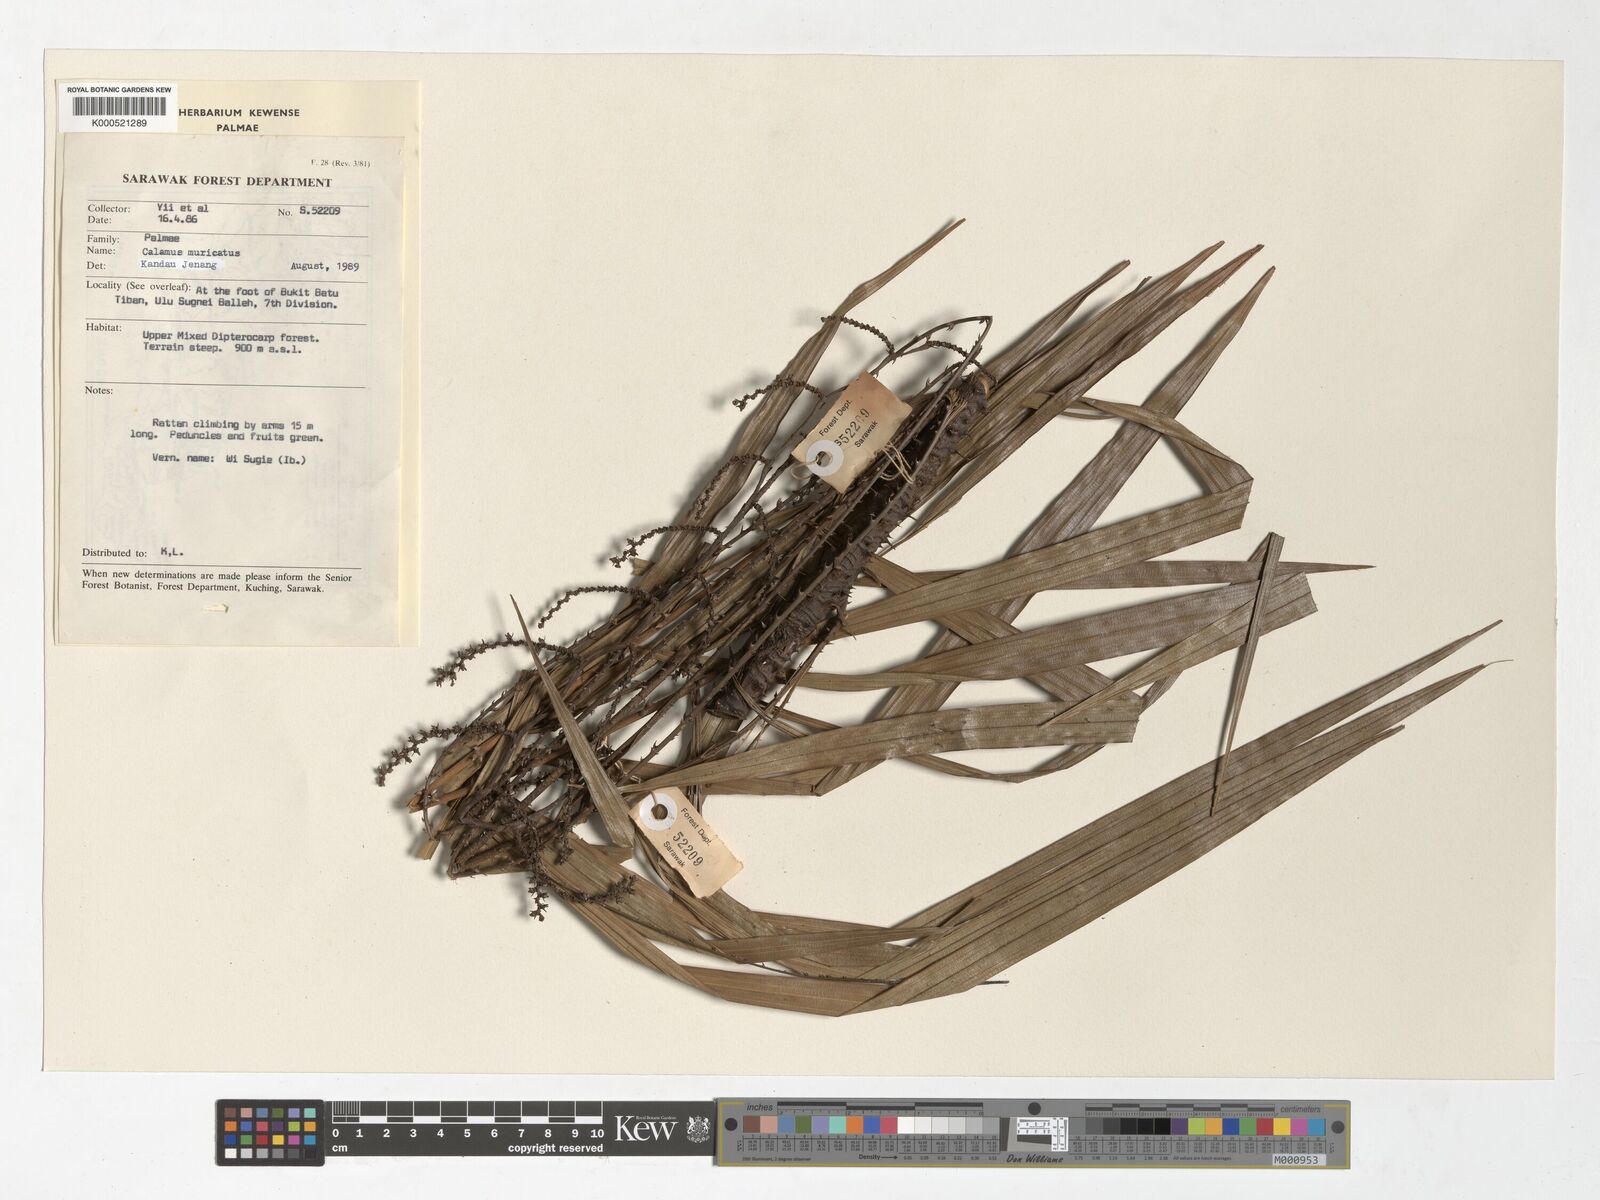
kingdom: Plantae
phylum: Tracheophyta
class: Liliopsida
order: Arecales
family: Arecaceae
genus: Calamus
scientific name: Calamus muricatus
